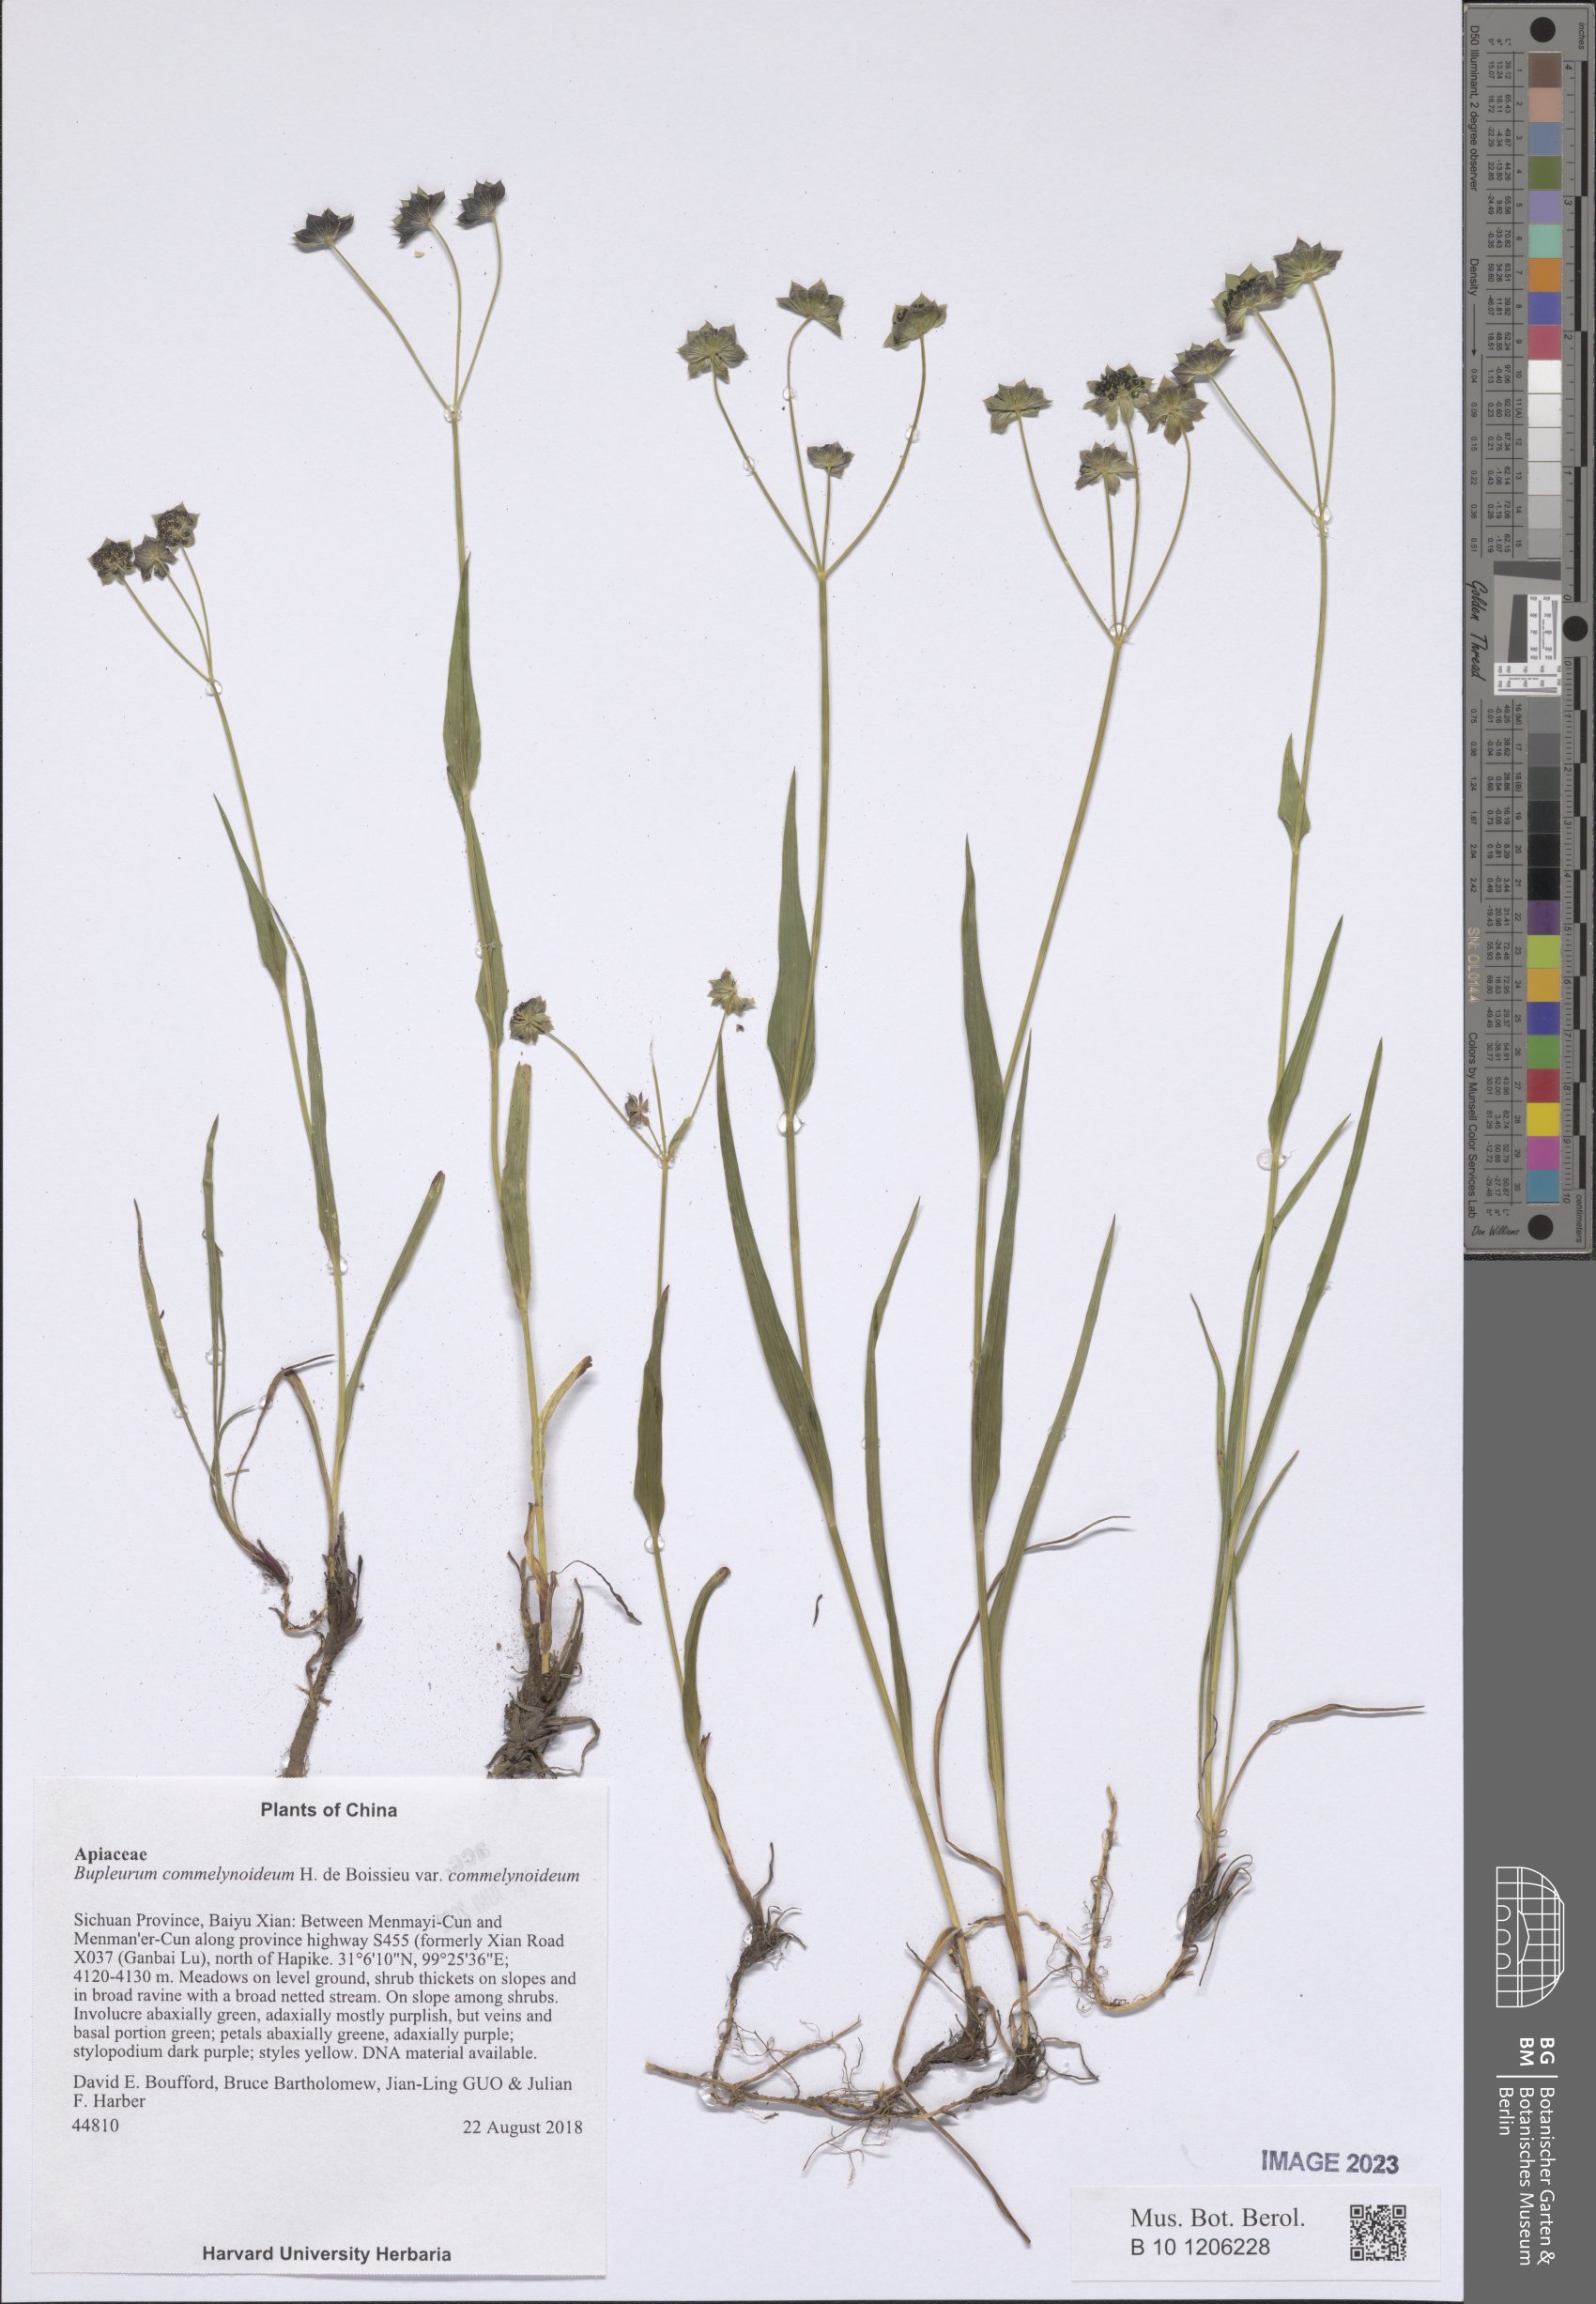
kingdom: Plantae
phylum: Tracheophyta
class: Magnoliopsida
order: Apiales
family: Apiaceae
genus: Bupleurum
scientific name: Bupleurum commelynoideum
